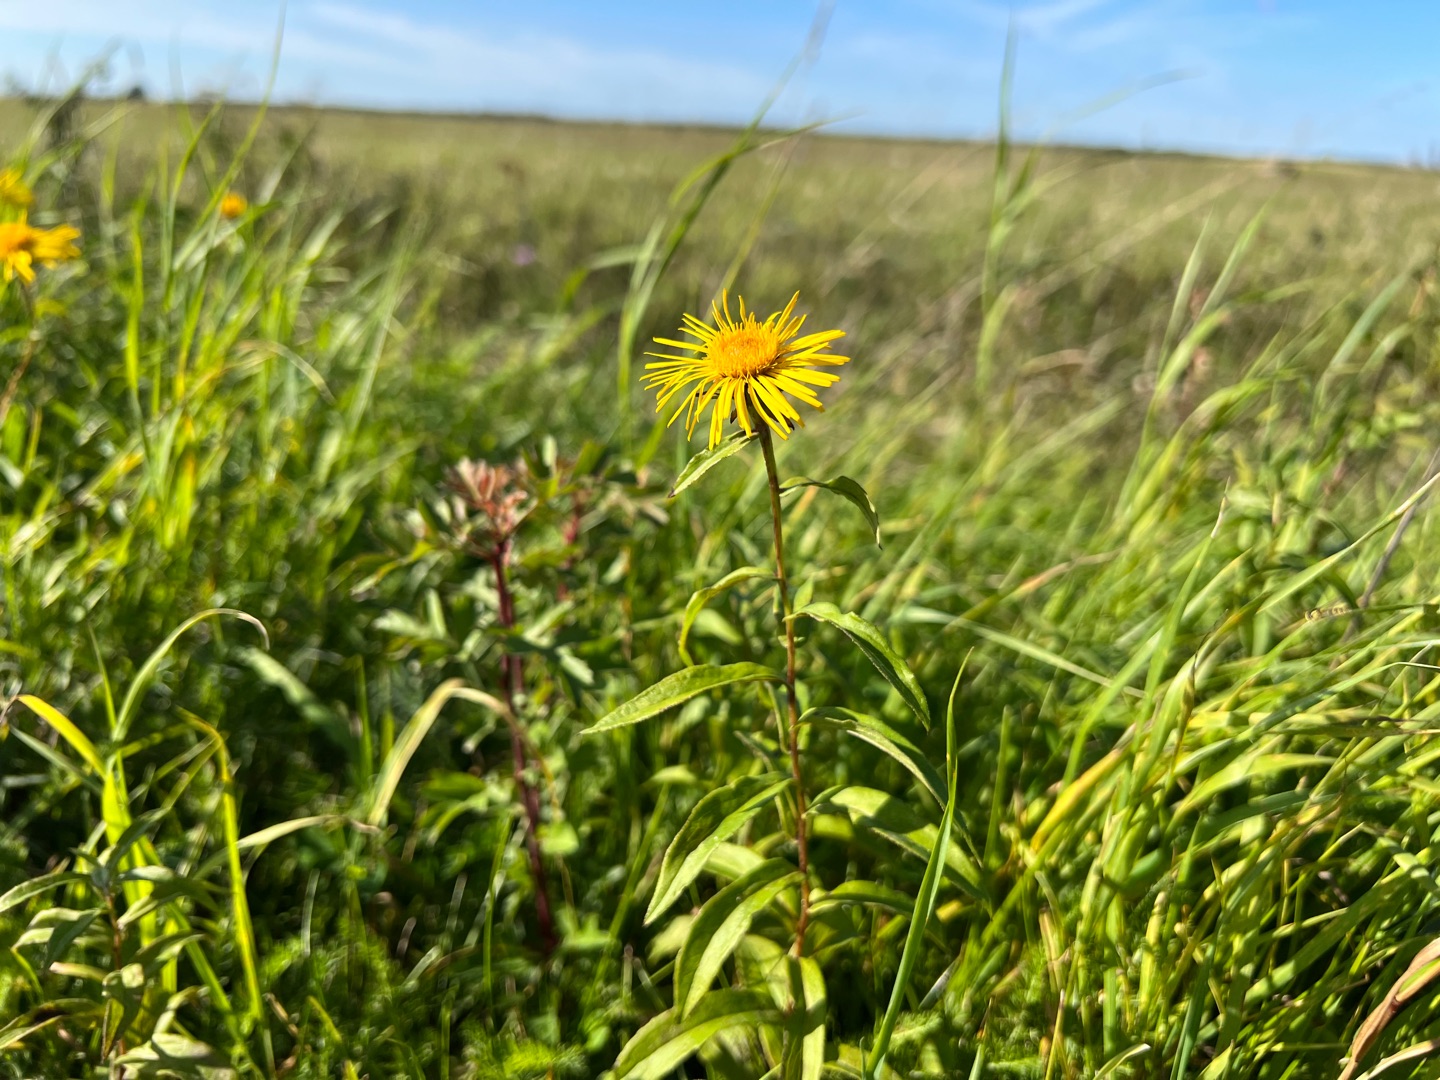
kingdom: Plantae
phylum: Tracheophyta
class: Magnoliopsida
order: Asterales
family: Asteraceae
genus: Pentanema
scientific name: Pentanema salicinum
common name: Pile-alant
